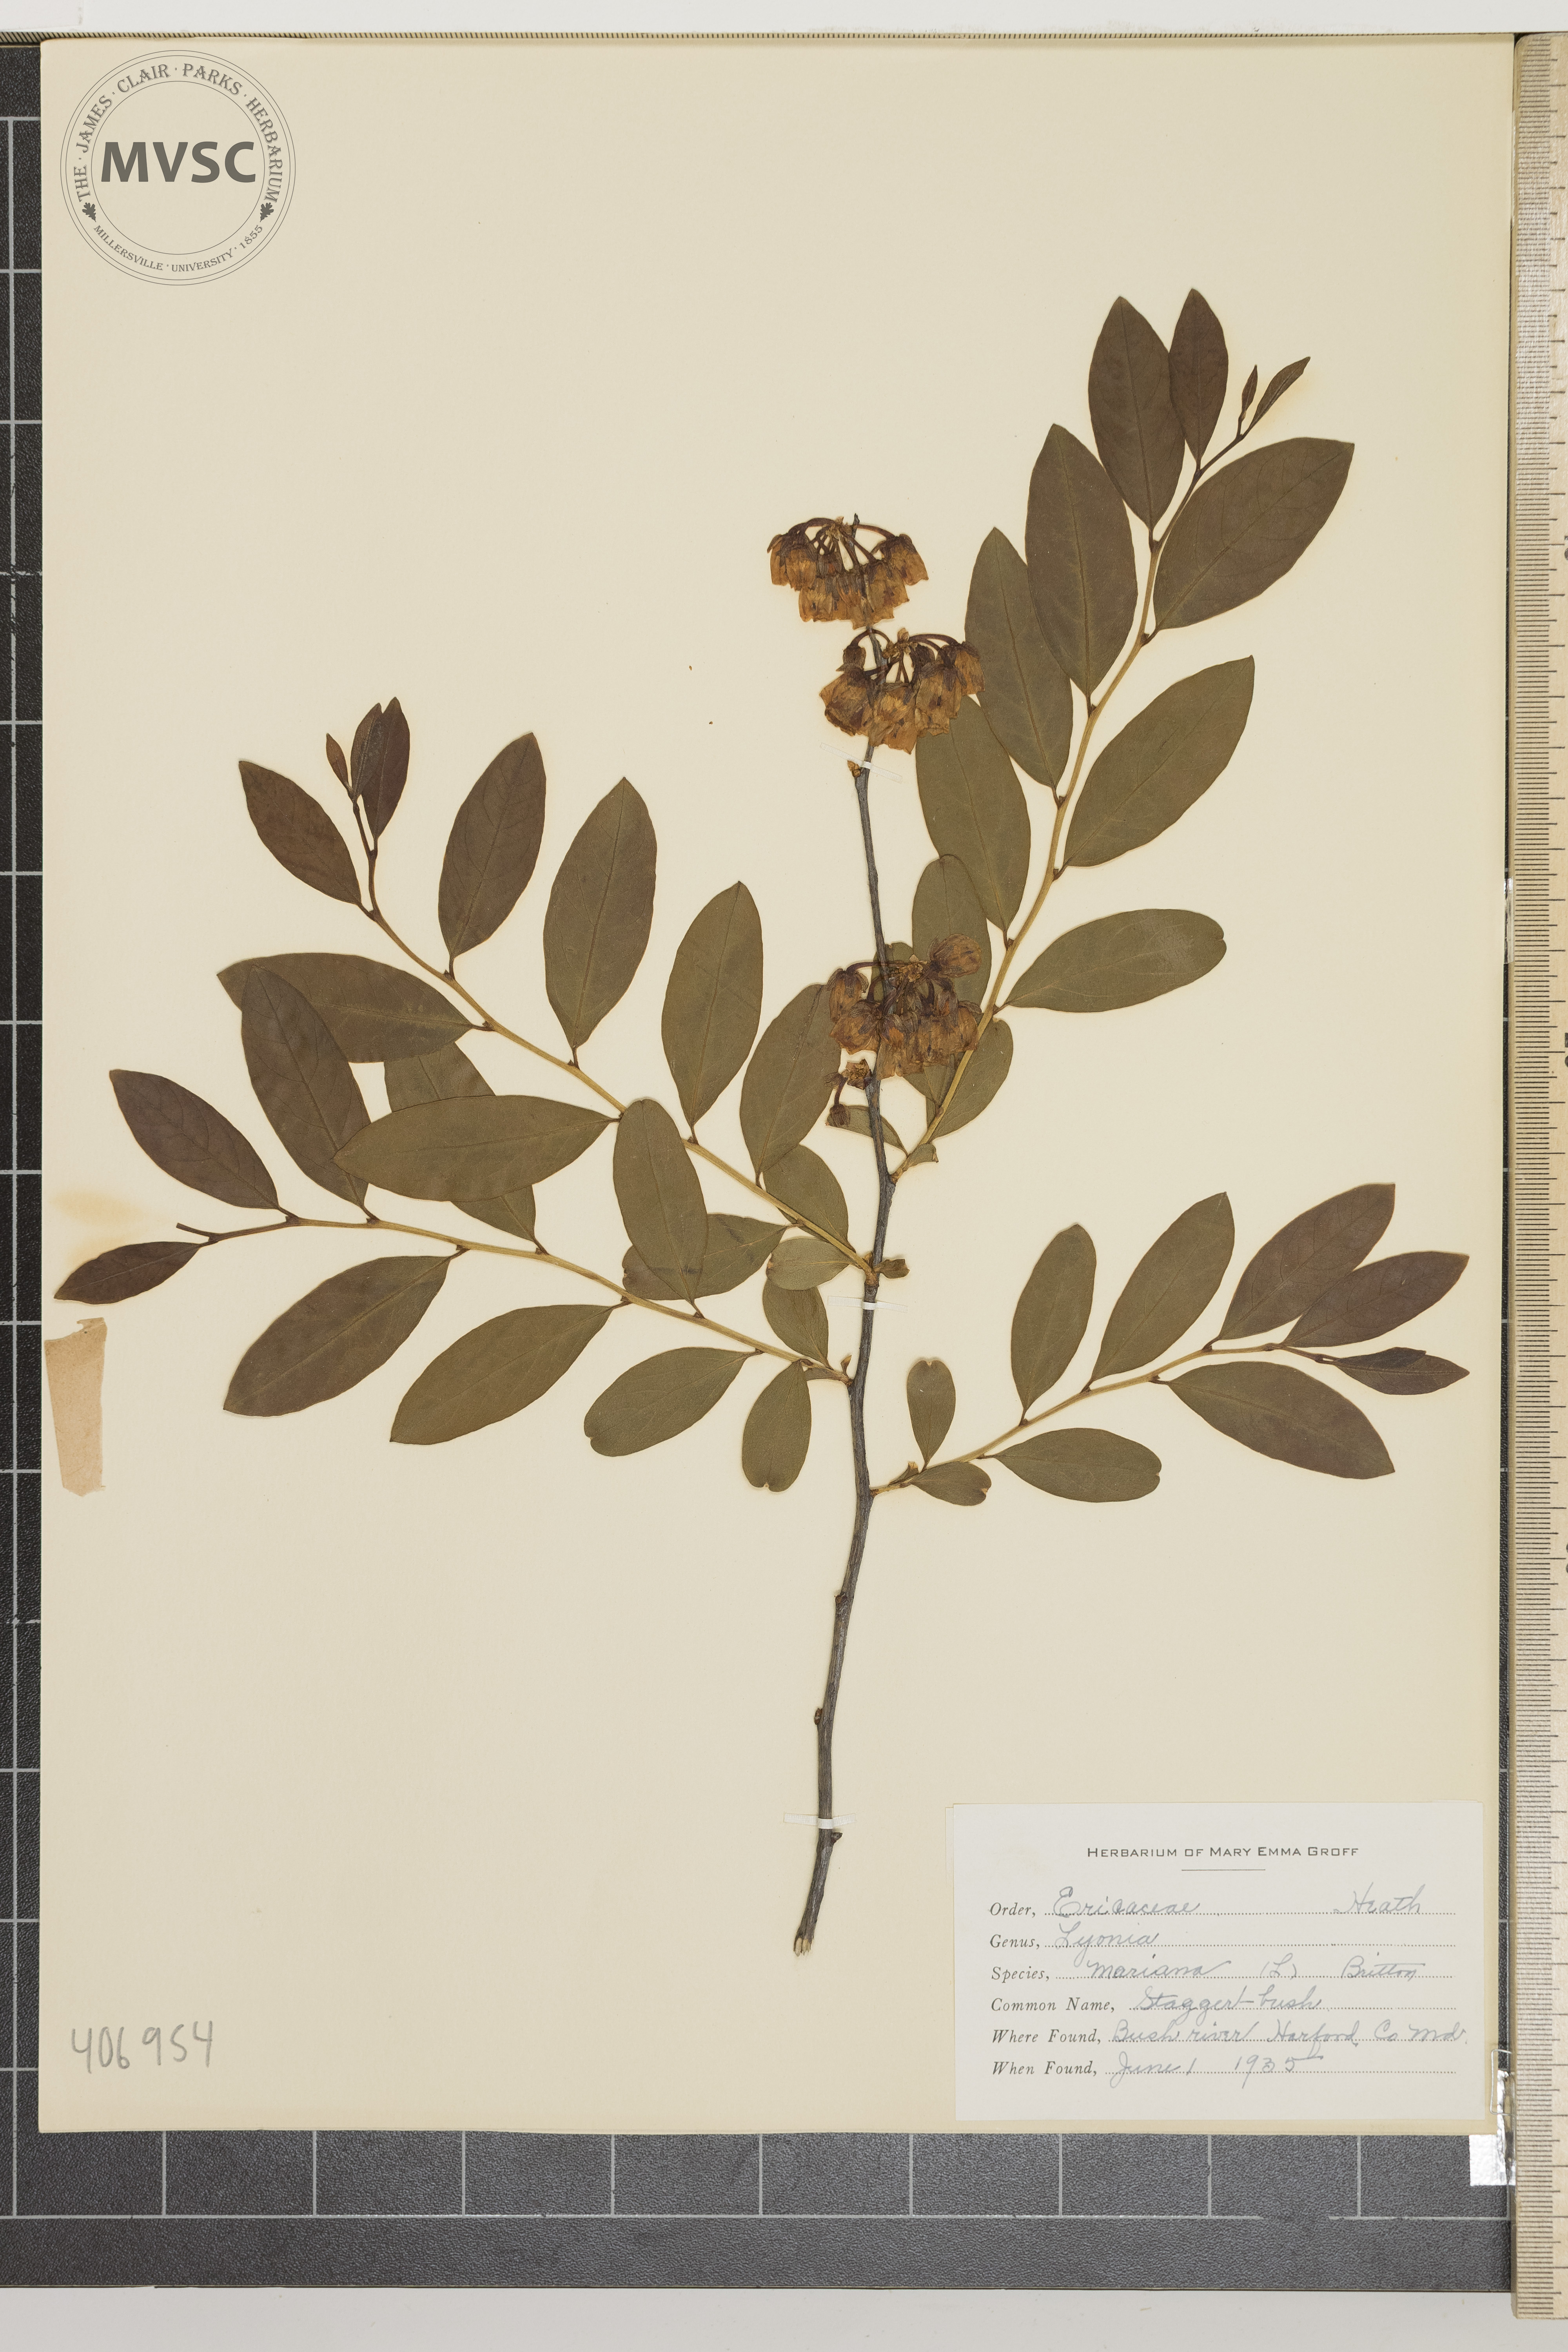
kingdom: Plantae
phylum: Tracheophyta
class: Magnoliopsida
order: Ericales
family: Ericaceae
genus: Lyonia
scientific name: Lyonia mariana
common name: Stagger-bush
